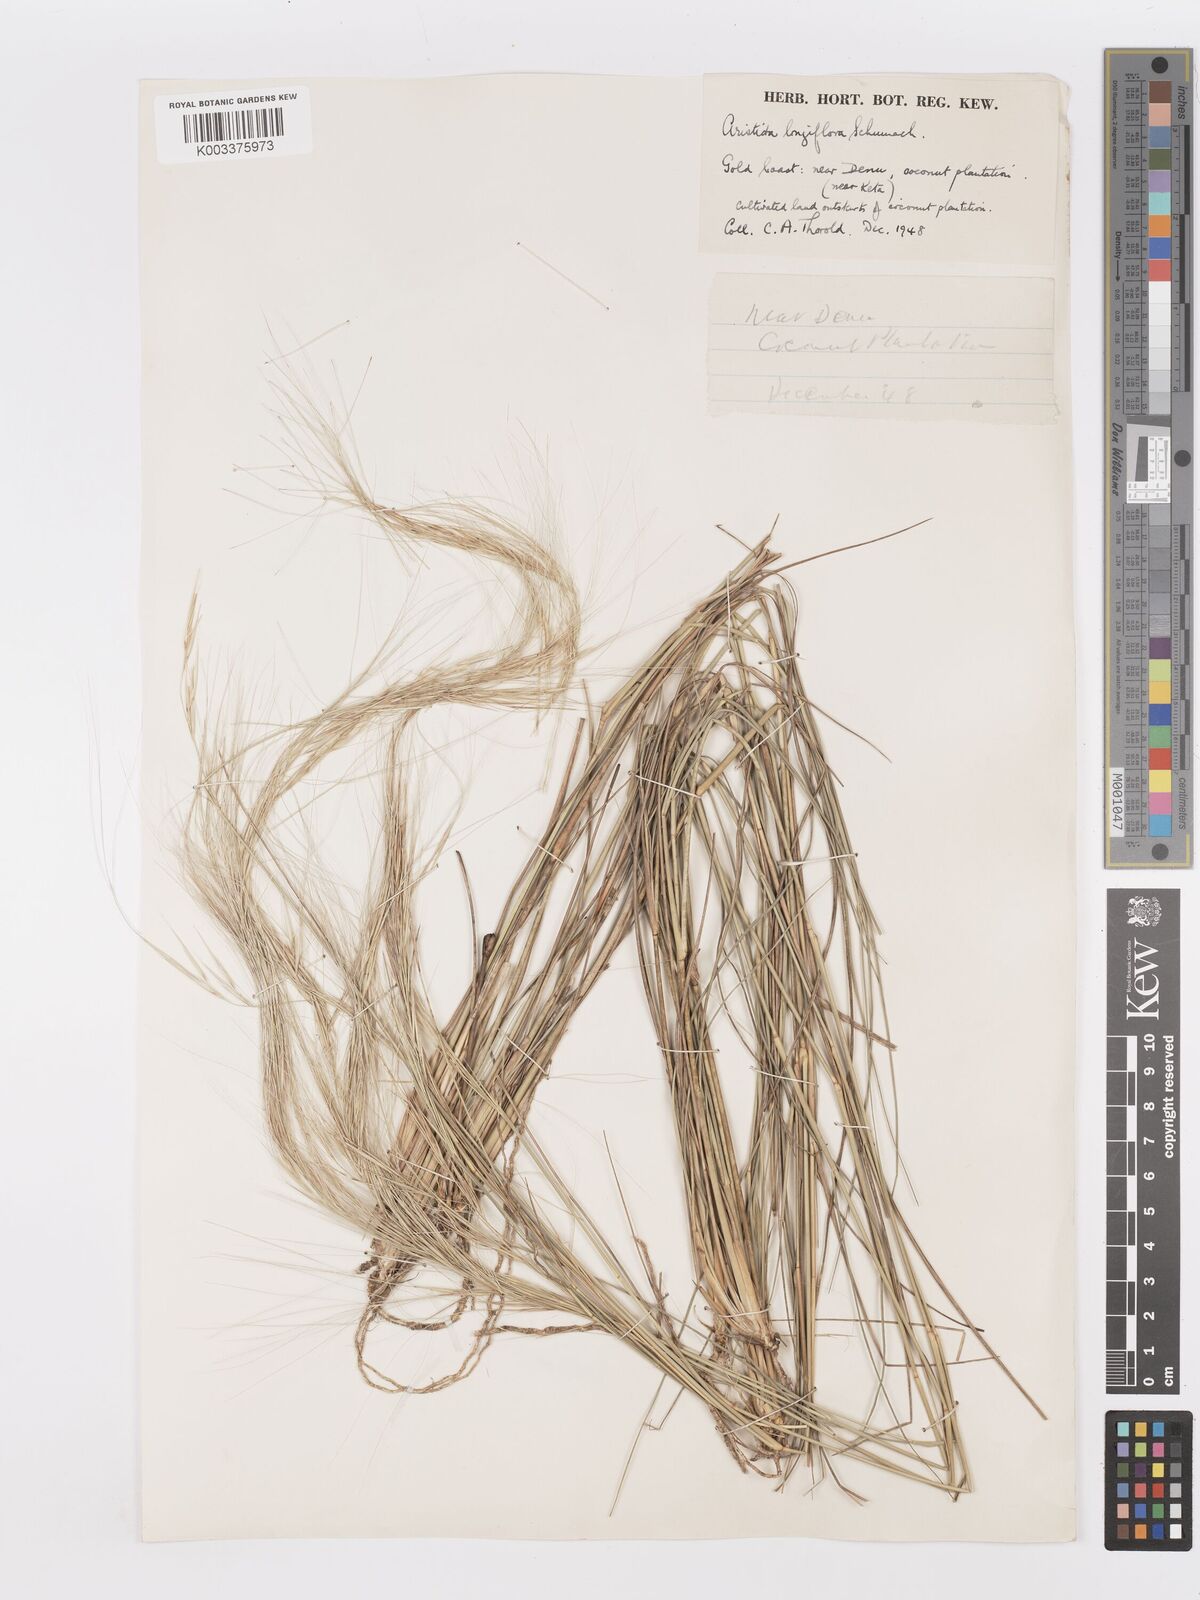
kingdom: Plantae
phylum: Tracheophyta
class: Liliopsida
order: Poales
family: Poaceae
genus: Aristida
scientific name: Aristida sieberiana
